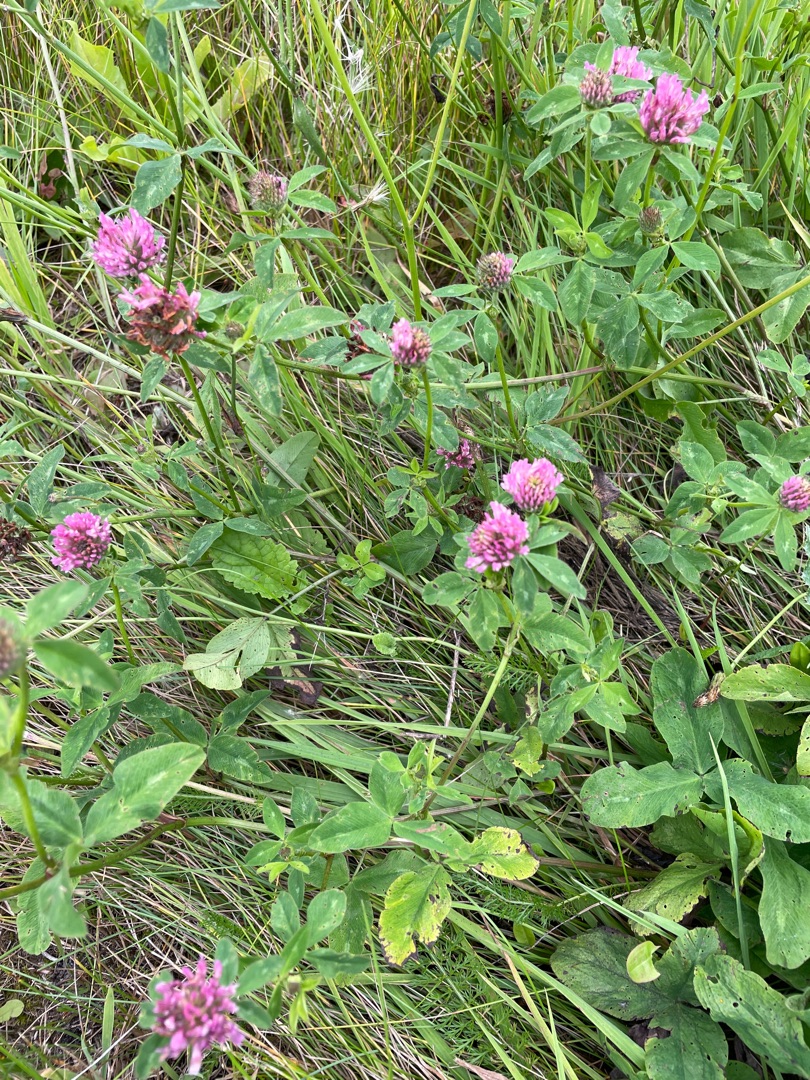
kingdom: Plantae
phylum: Tracheophyta
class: Magnoliopsida
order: Fabales
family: Fabaceae
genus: Trifolium
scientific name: Trifolium pratense
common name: Rød-kløver
